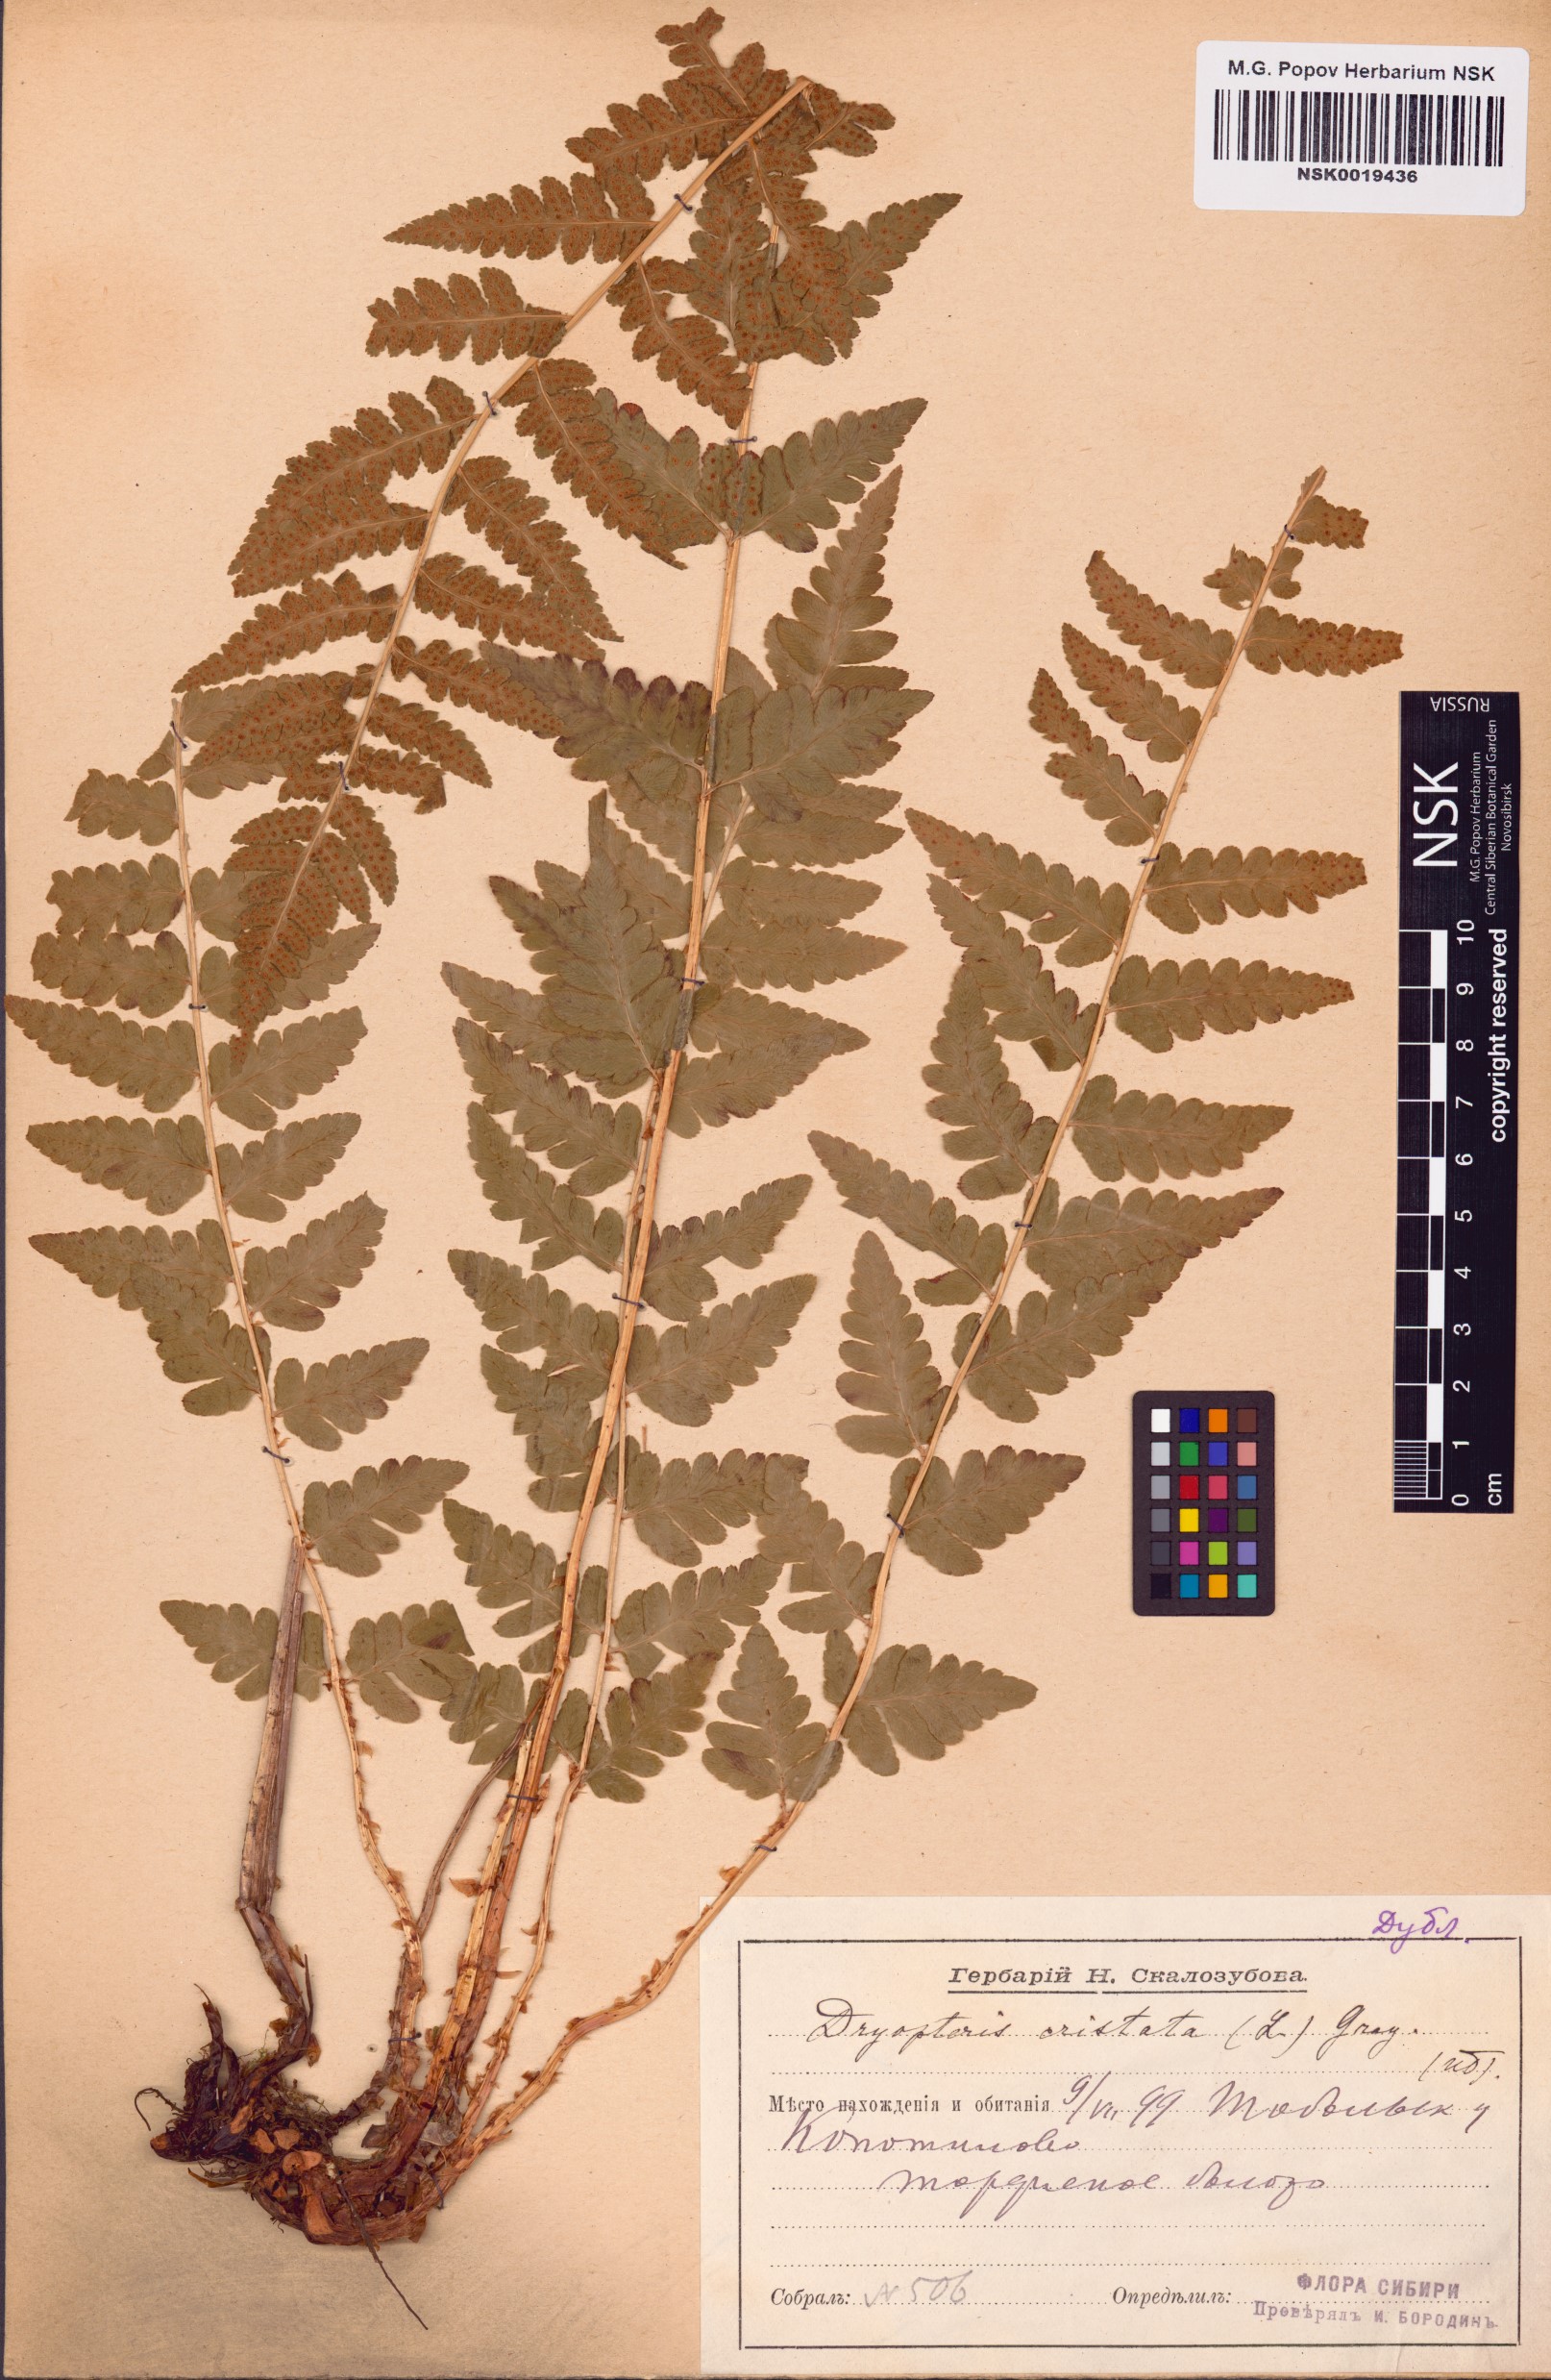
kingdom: Plantae
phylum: Tracheophyta
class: Polypodiopsida
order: Polypodiales
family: Dryopteridaceae
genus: Dryopteris
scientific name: Dryopteris cristata
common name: Crested wood fern
